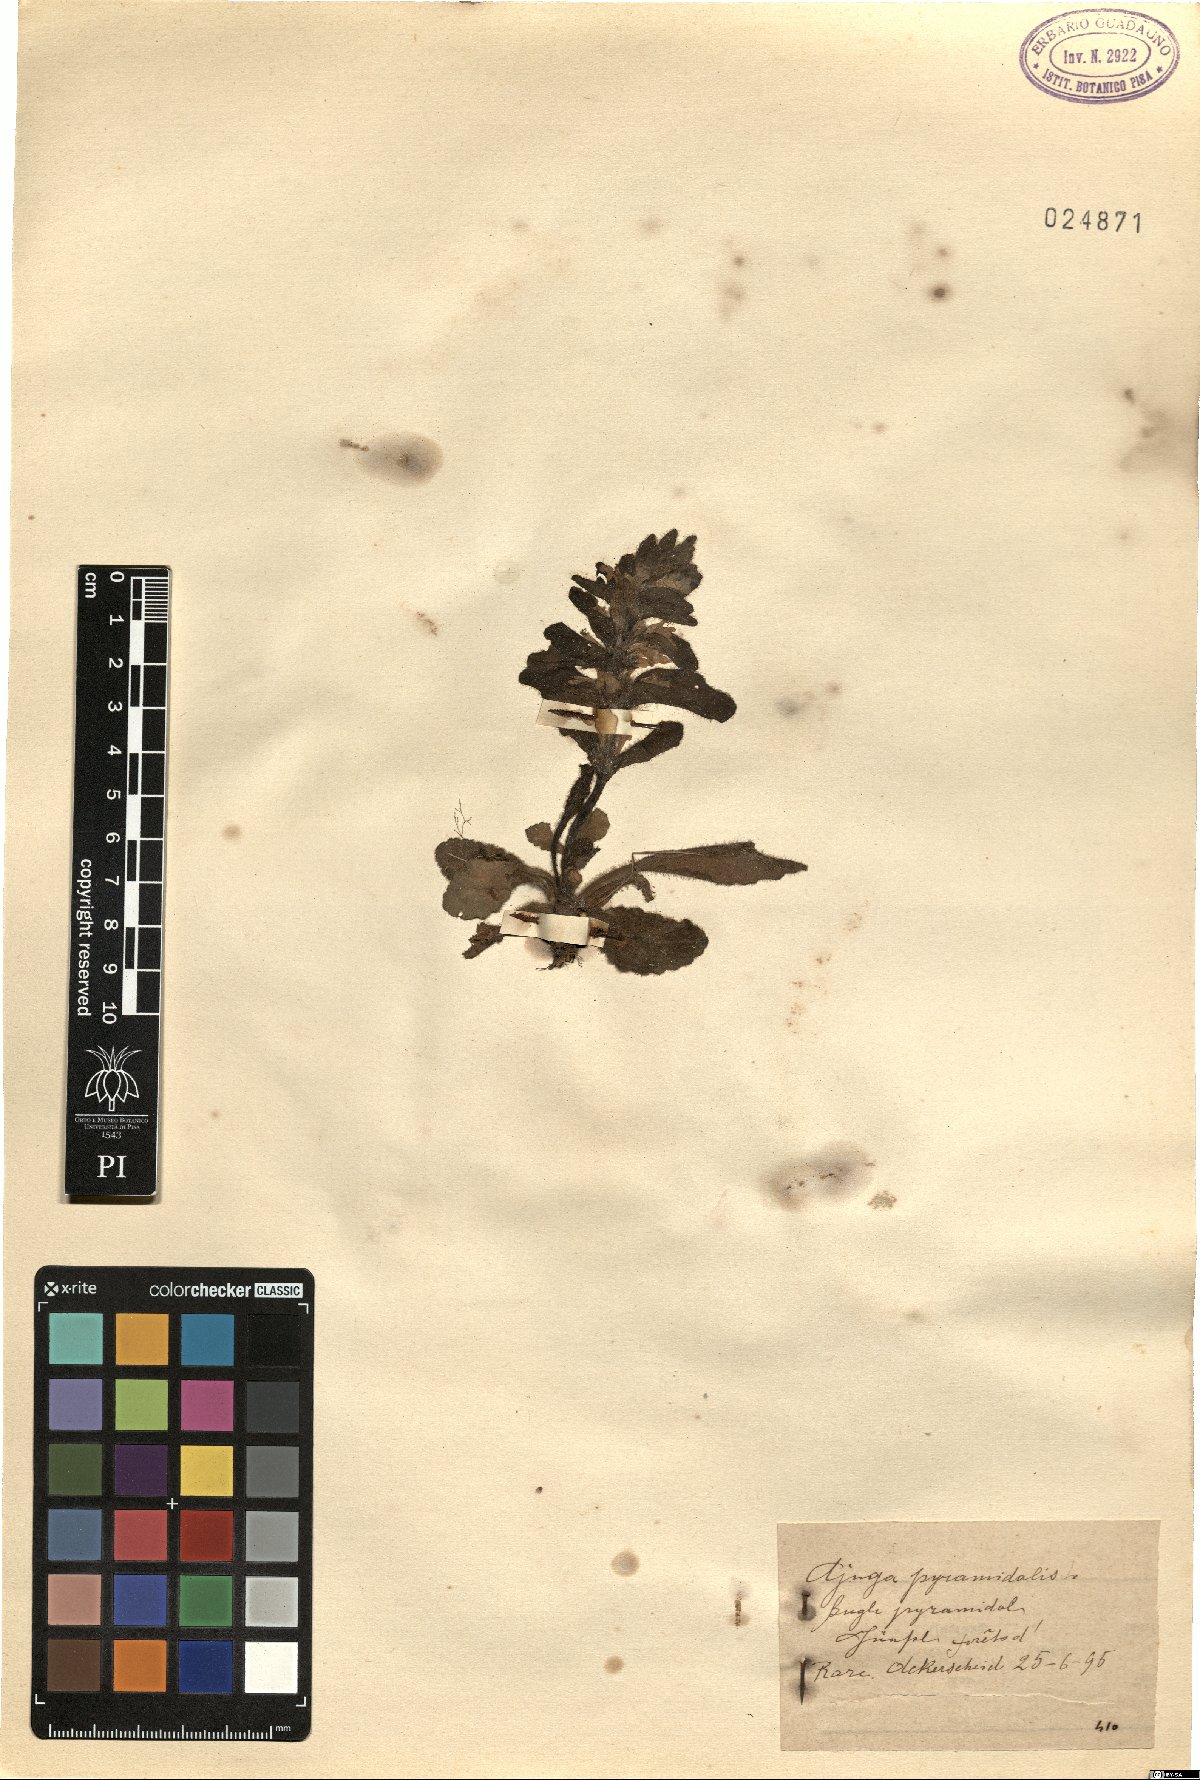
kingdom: Plantae
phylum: Tracheophyta
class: Magnoliopsida
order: Lamiales
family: Lamiaceae
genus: Ajuga
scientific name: Ajuga pyramidalis
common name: Pyramid bugle
